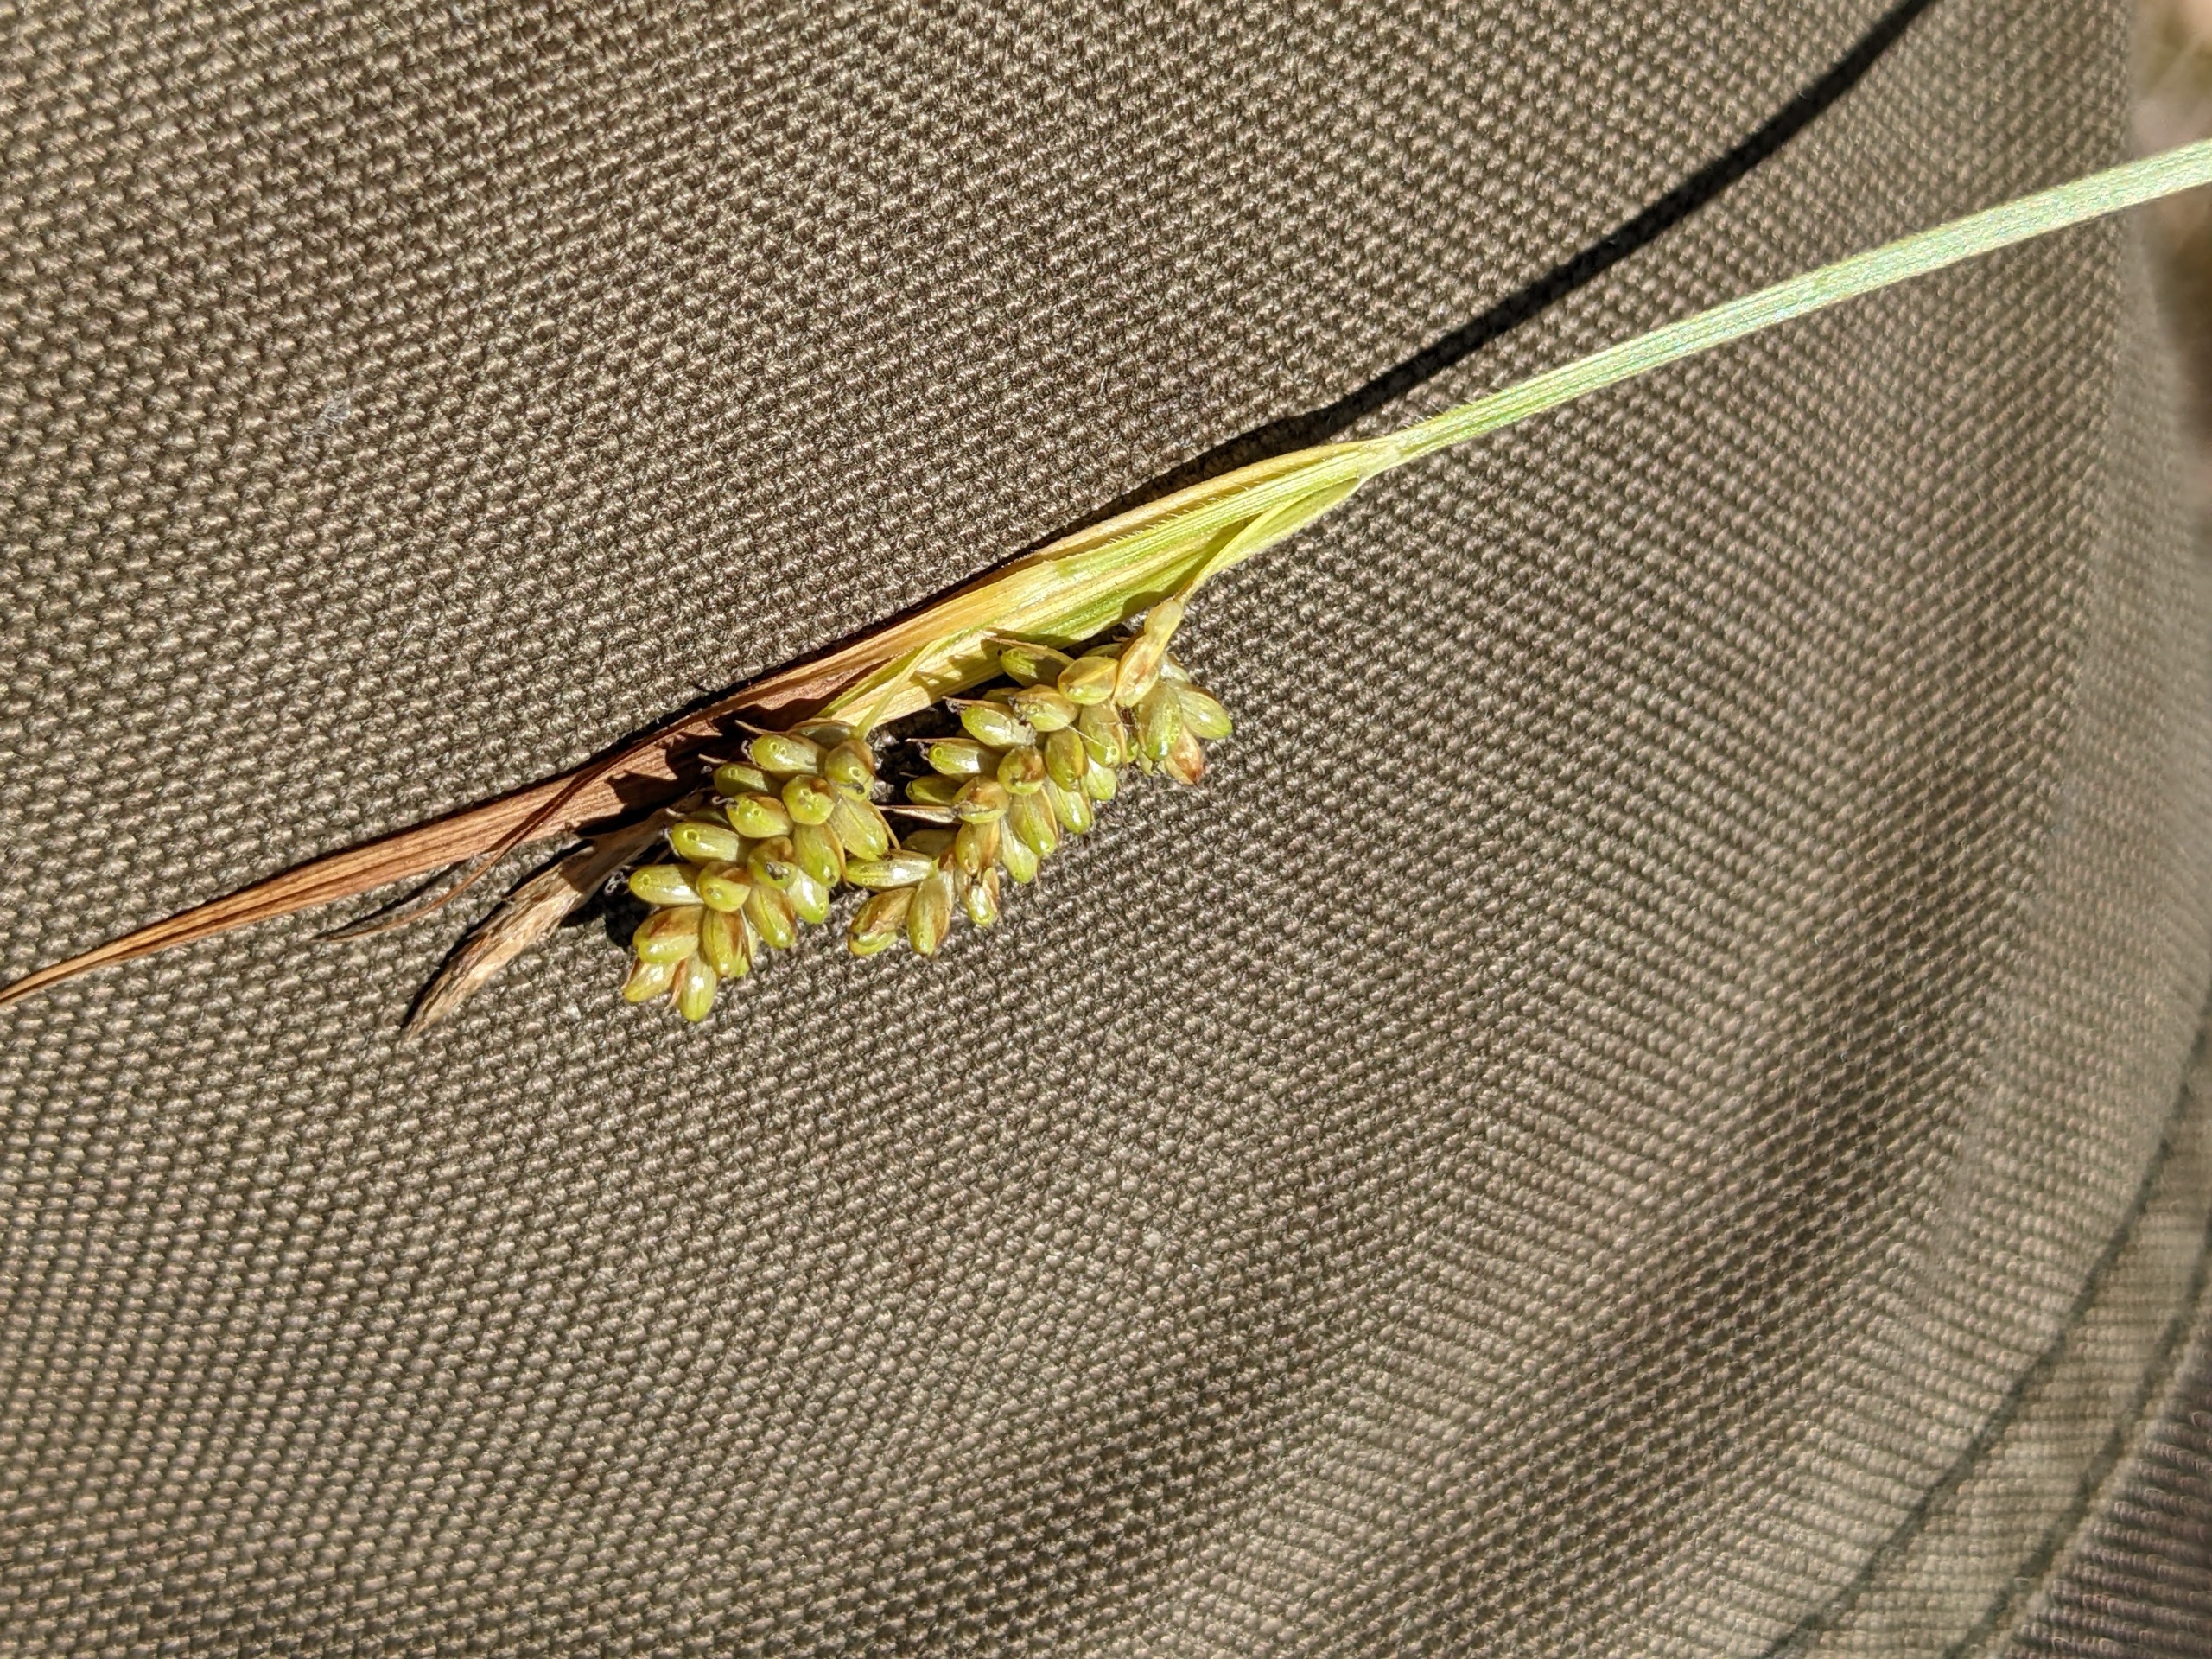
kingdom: Plantae
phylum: Tracheophyta
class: Liliopsida
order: Poales
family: Cyperaceae
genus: Carex
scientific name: Carex pallescens
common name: Bleg star
